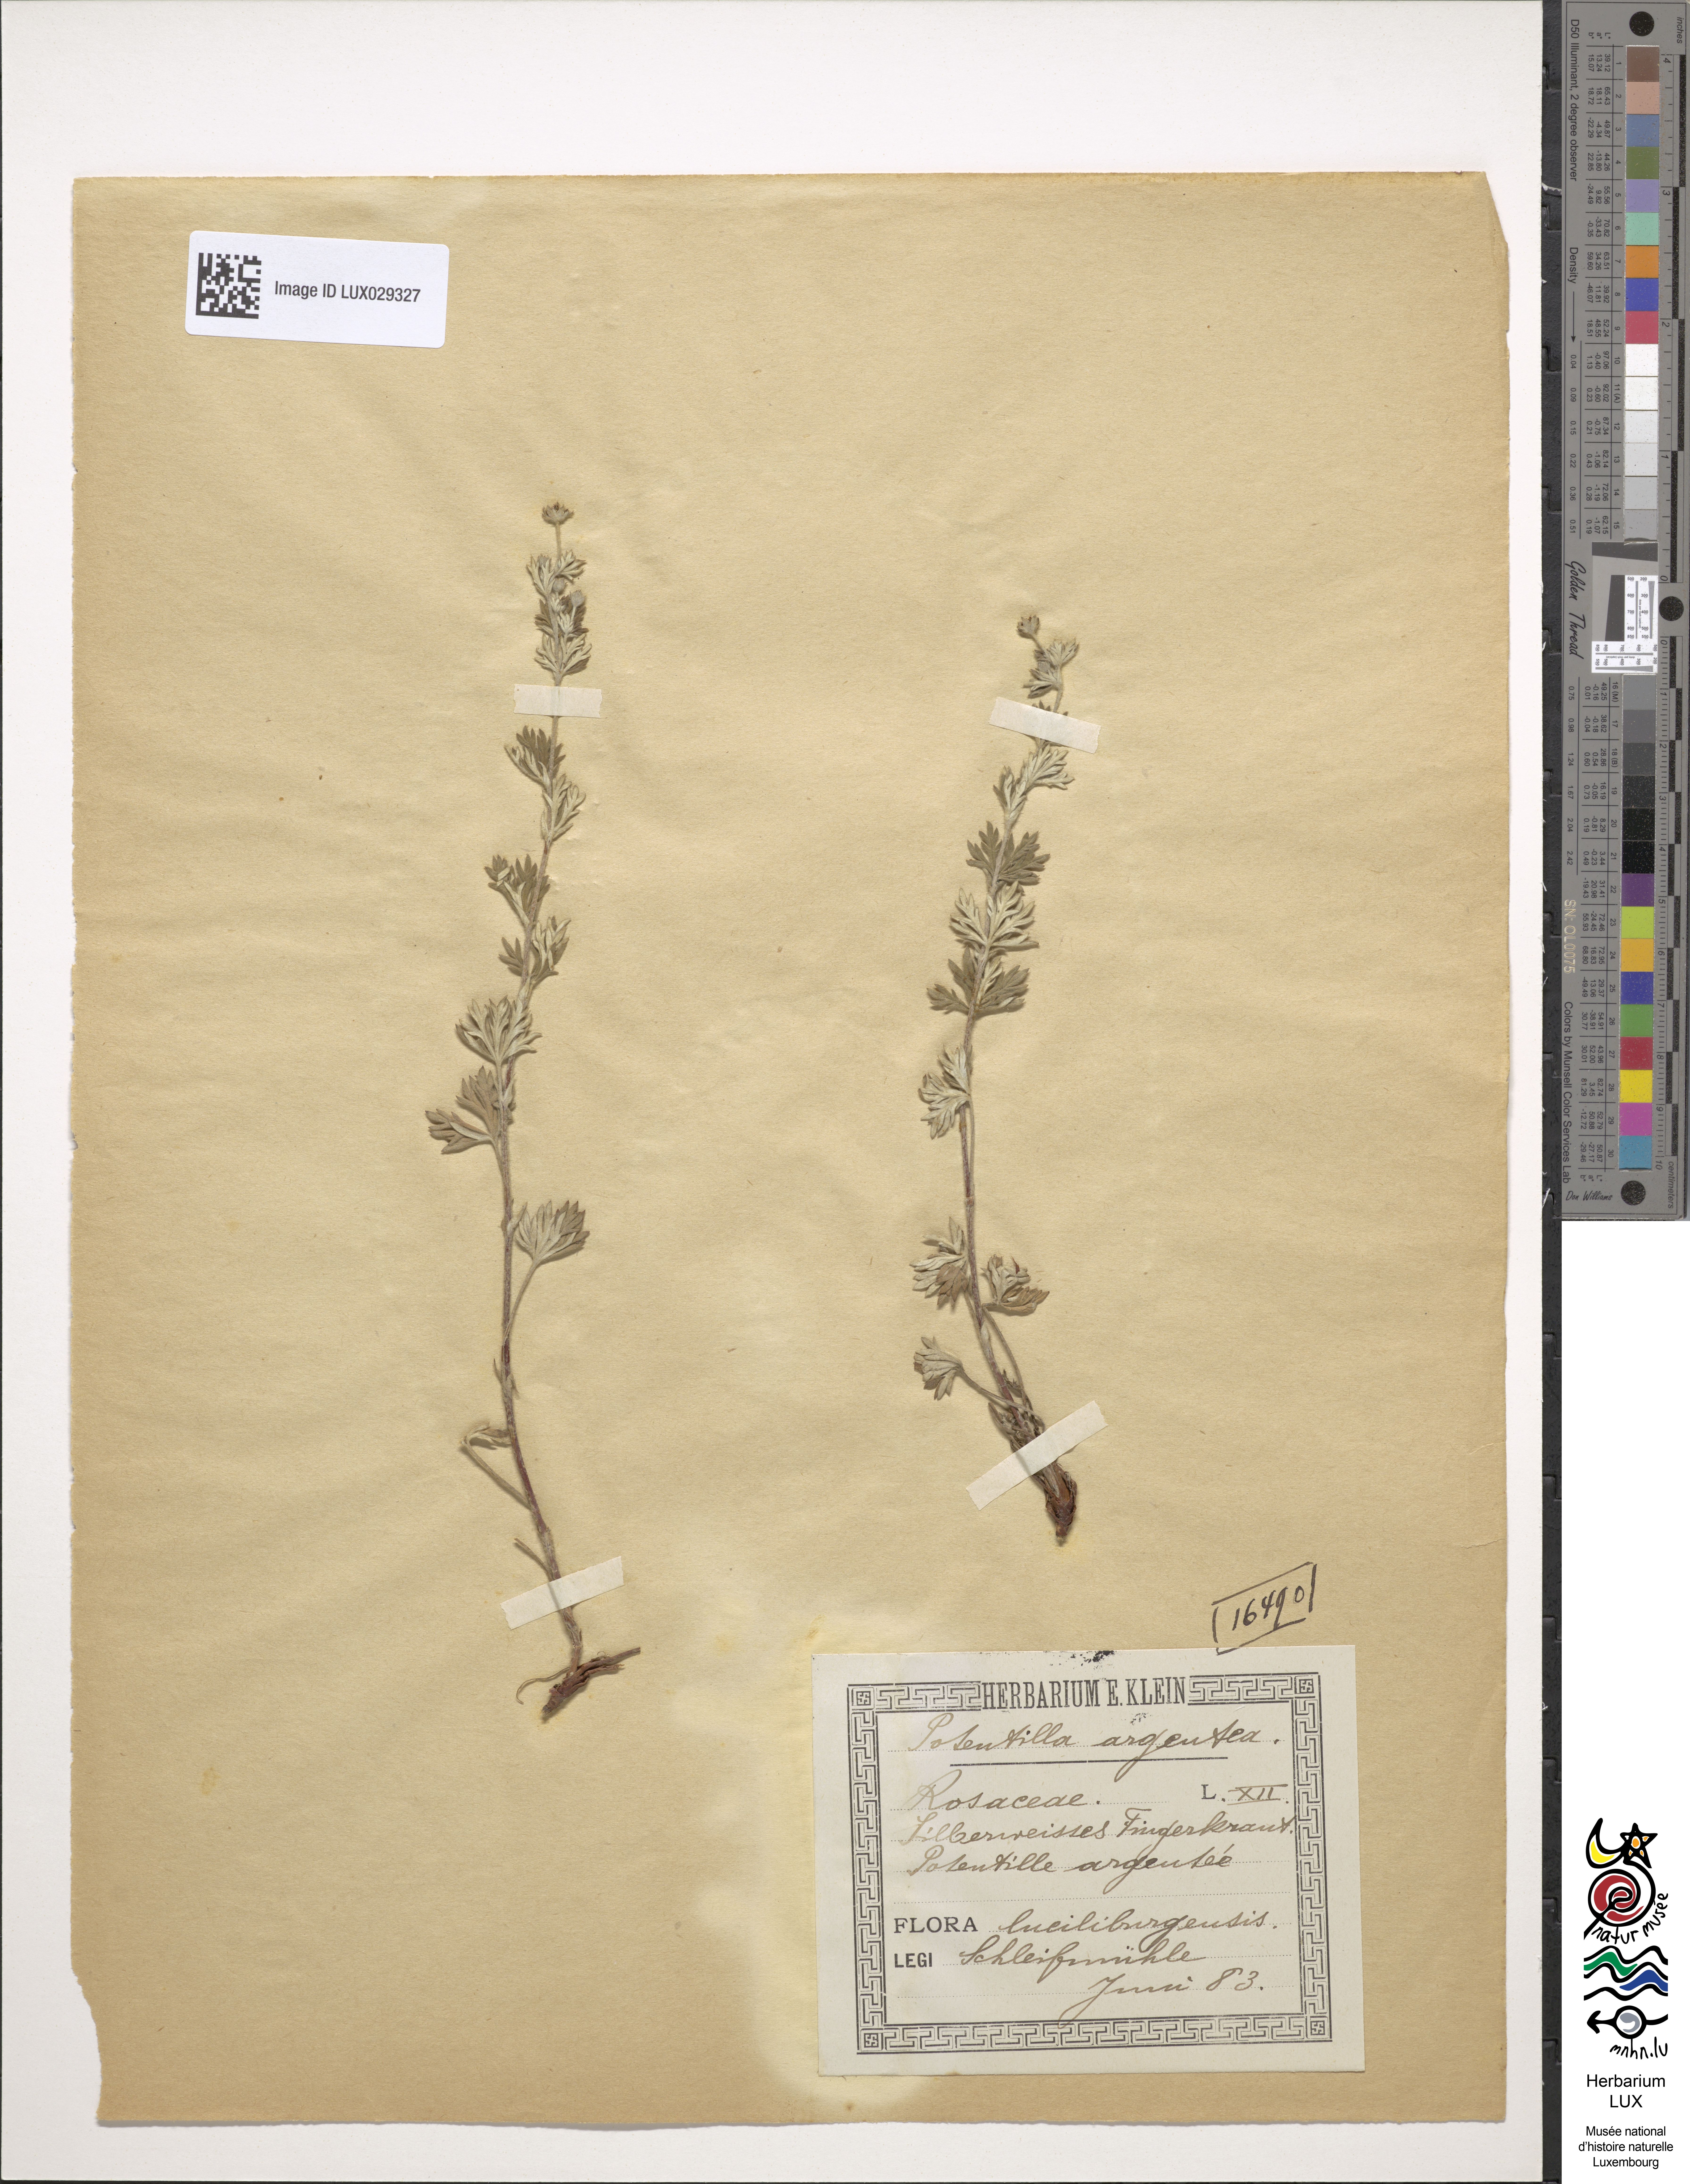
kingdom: Plantae
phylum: Tracheophyta
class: Magnoliopsida
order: Rosales
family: Rosaceae
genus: Potentilla
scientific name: Potentilla argentea
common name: Hoary cinquefoil
